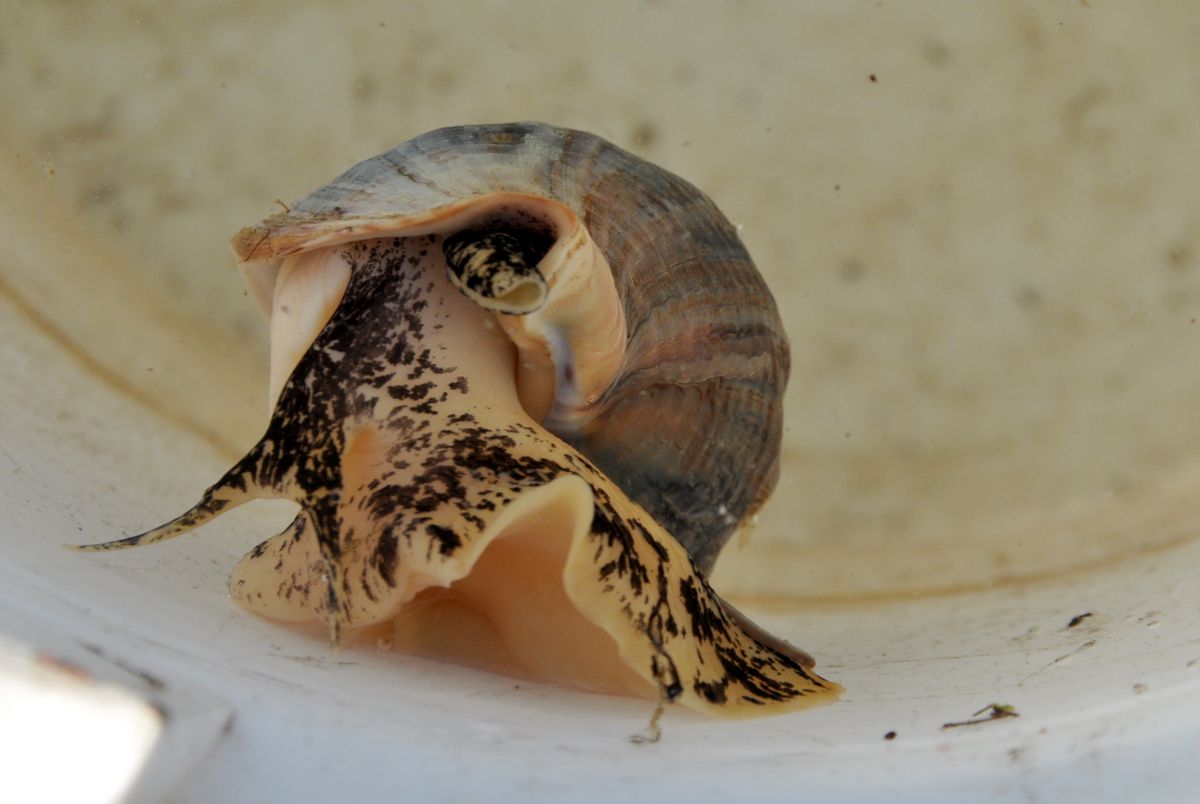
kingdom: Animalia
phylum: Mollusca
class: Gastropoda
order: Neogastropoda
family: Buccinidae
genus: Buccinum
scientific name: Buccinum undatum
